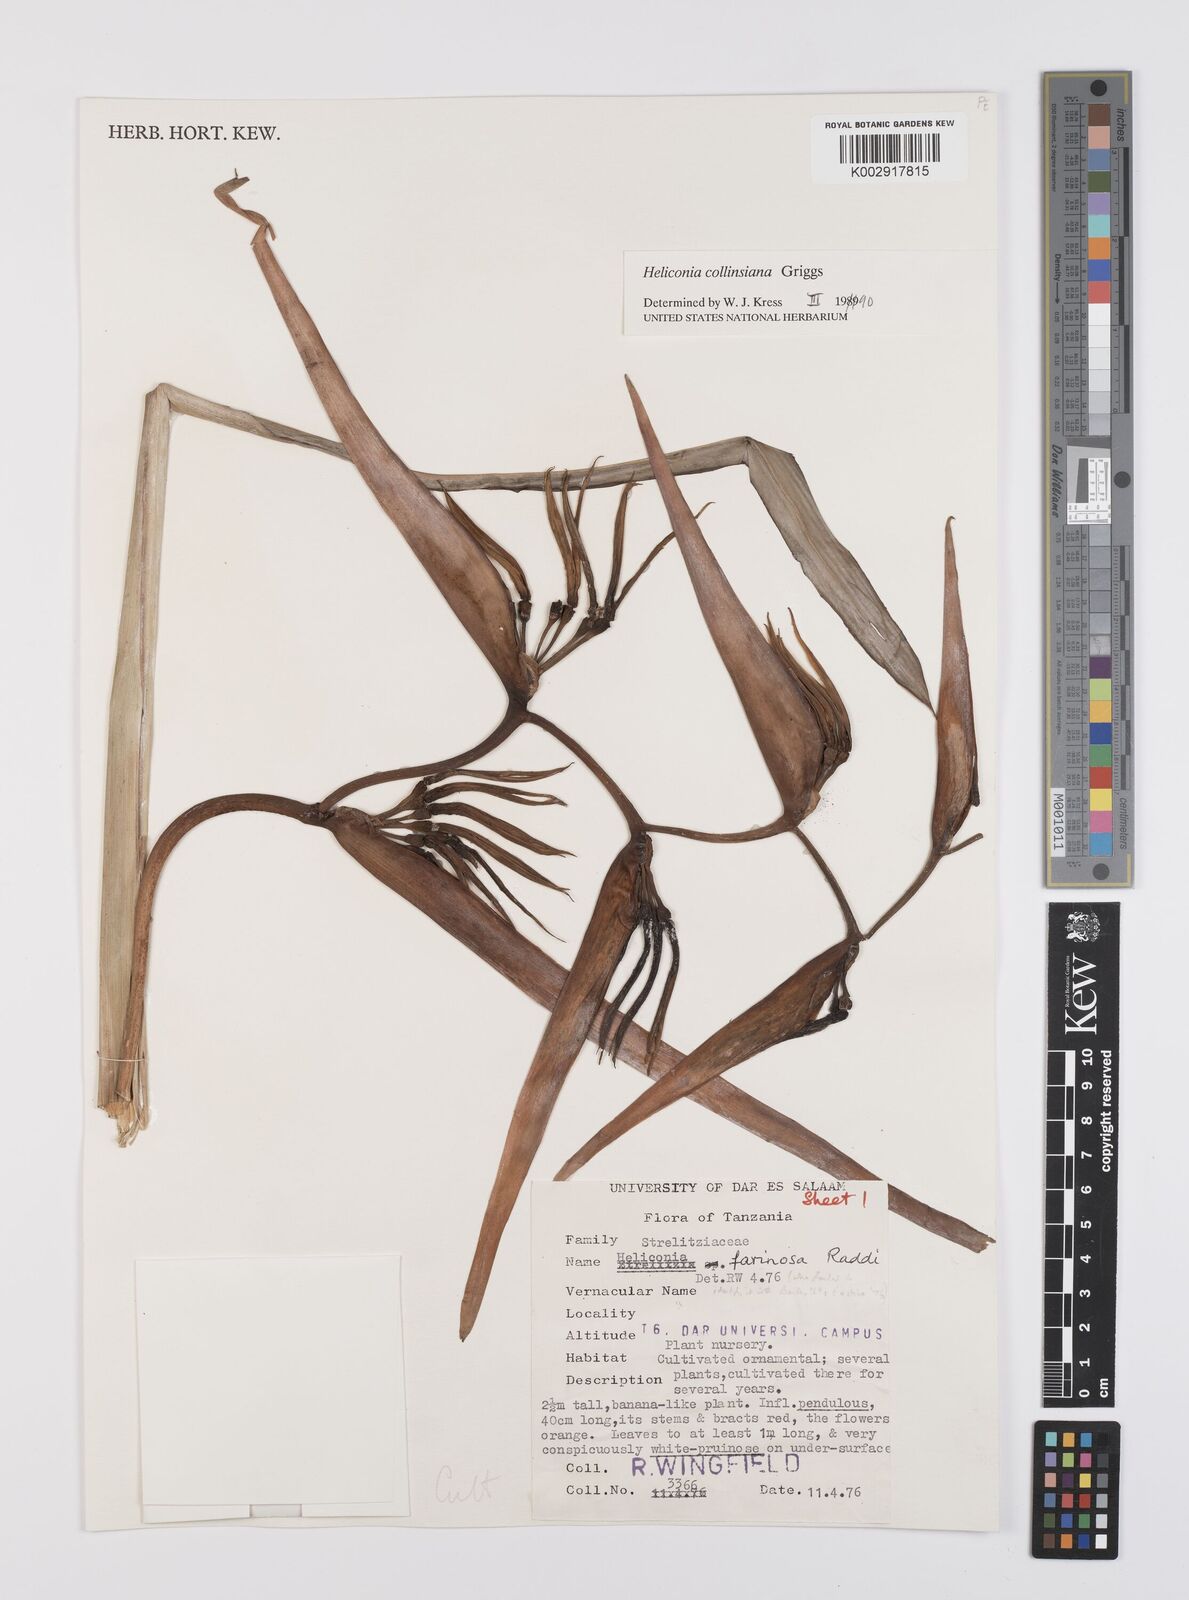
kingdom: Plantae
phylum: Tracheophyta
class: Liliopsida
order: Zingiberales
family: Heliconiaceae
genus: Heliconia
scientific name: Heliconia collinsiana
